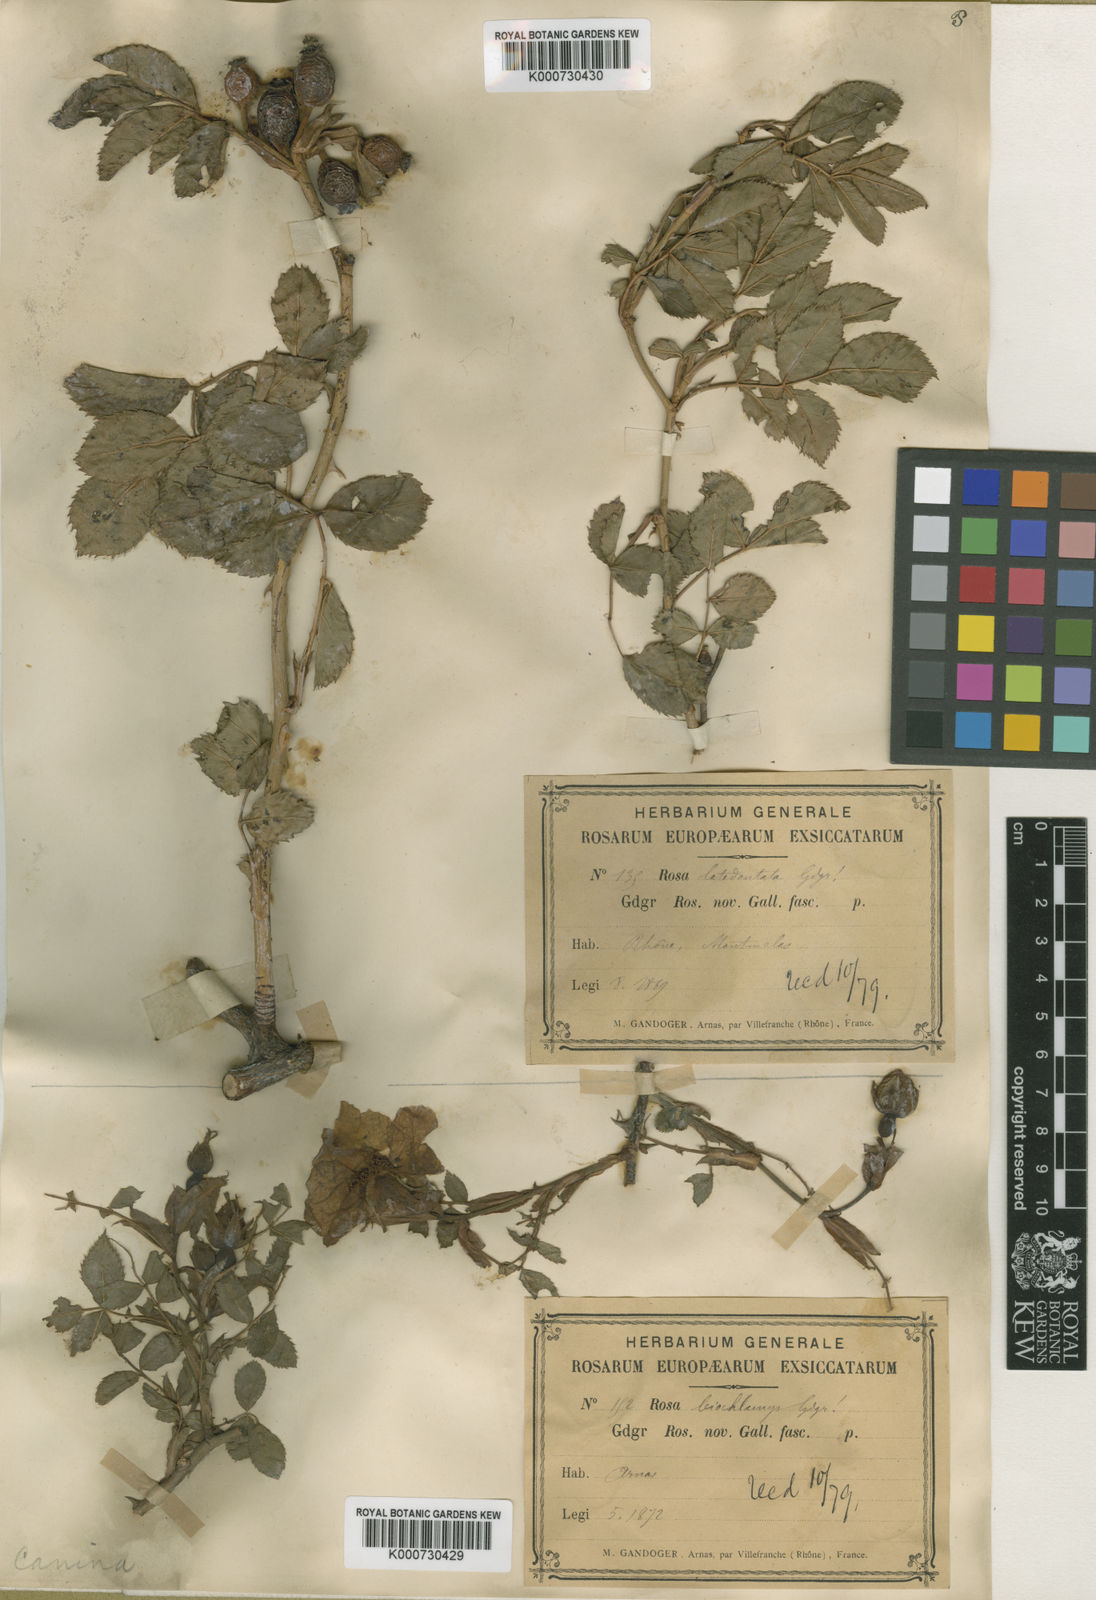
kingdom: Plantae
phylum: Tracheophyta
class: Magnoliopsida
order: Rosales
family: Rosaceae
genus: Rosa
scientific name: Rosa canina
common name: Dog rose
